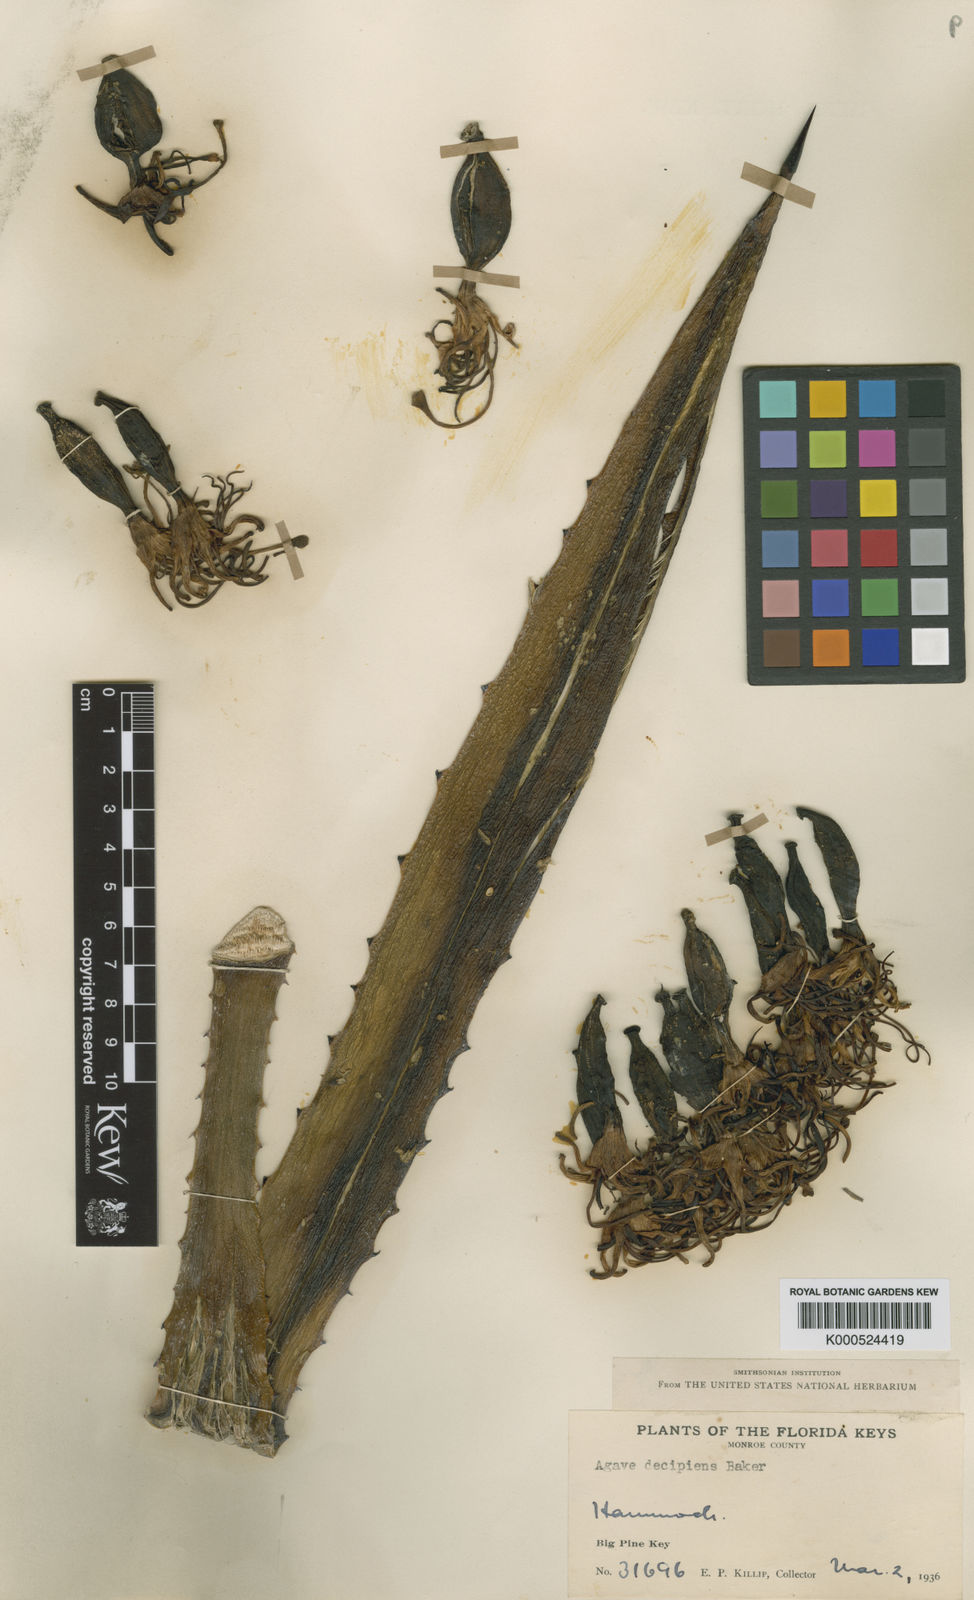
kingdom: Plantae
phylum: Tracheophyta
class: Liliopsida
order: Asparagales
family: Asparagaceae
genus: Agave
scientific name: Agave decipiens
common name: False sisal
